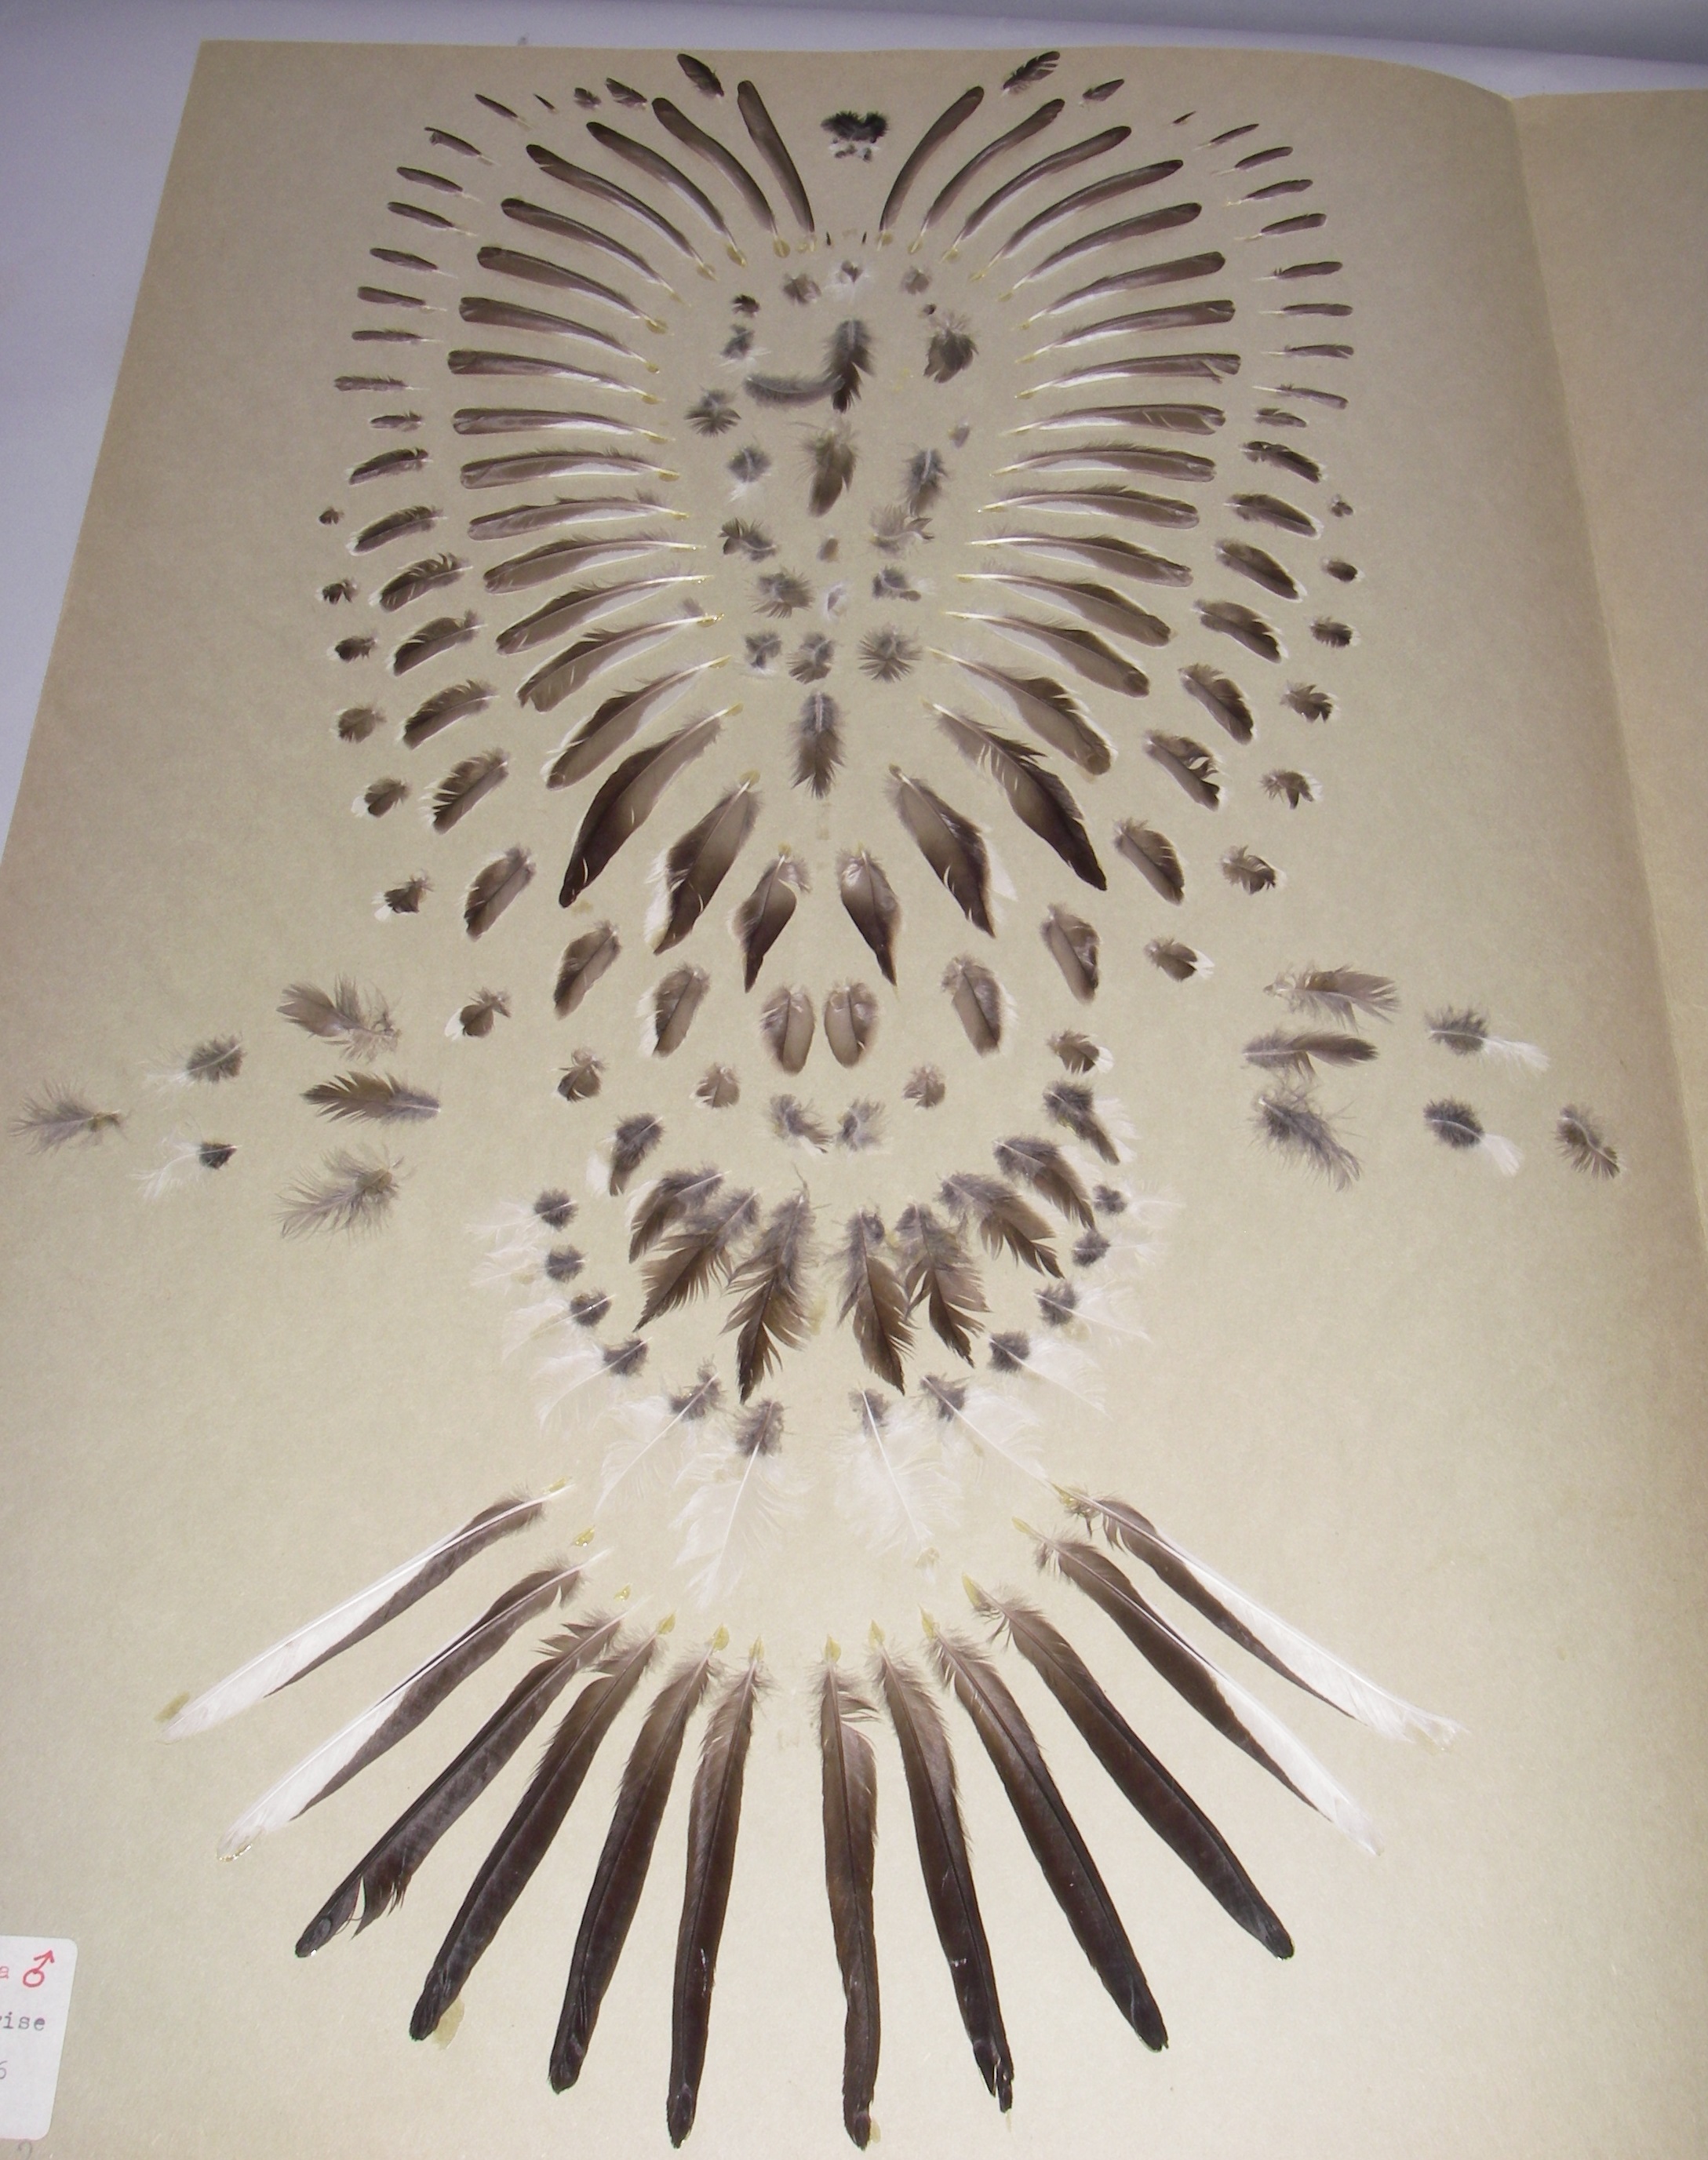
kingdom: Animalia
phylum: Chordata
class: Aves
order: Passeriformes
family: Motacillidae
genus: Motacilla
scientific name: Motacilla alba
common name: White wagtail
